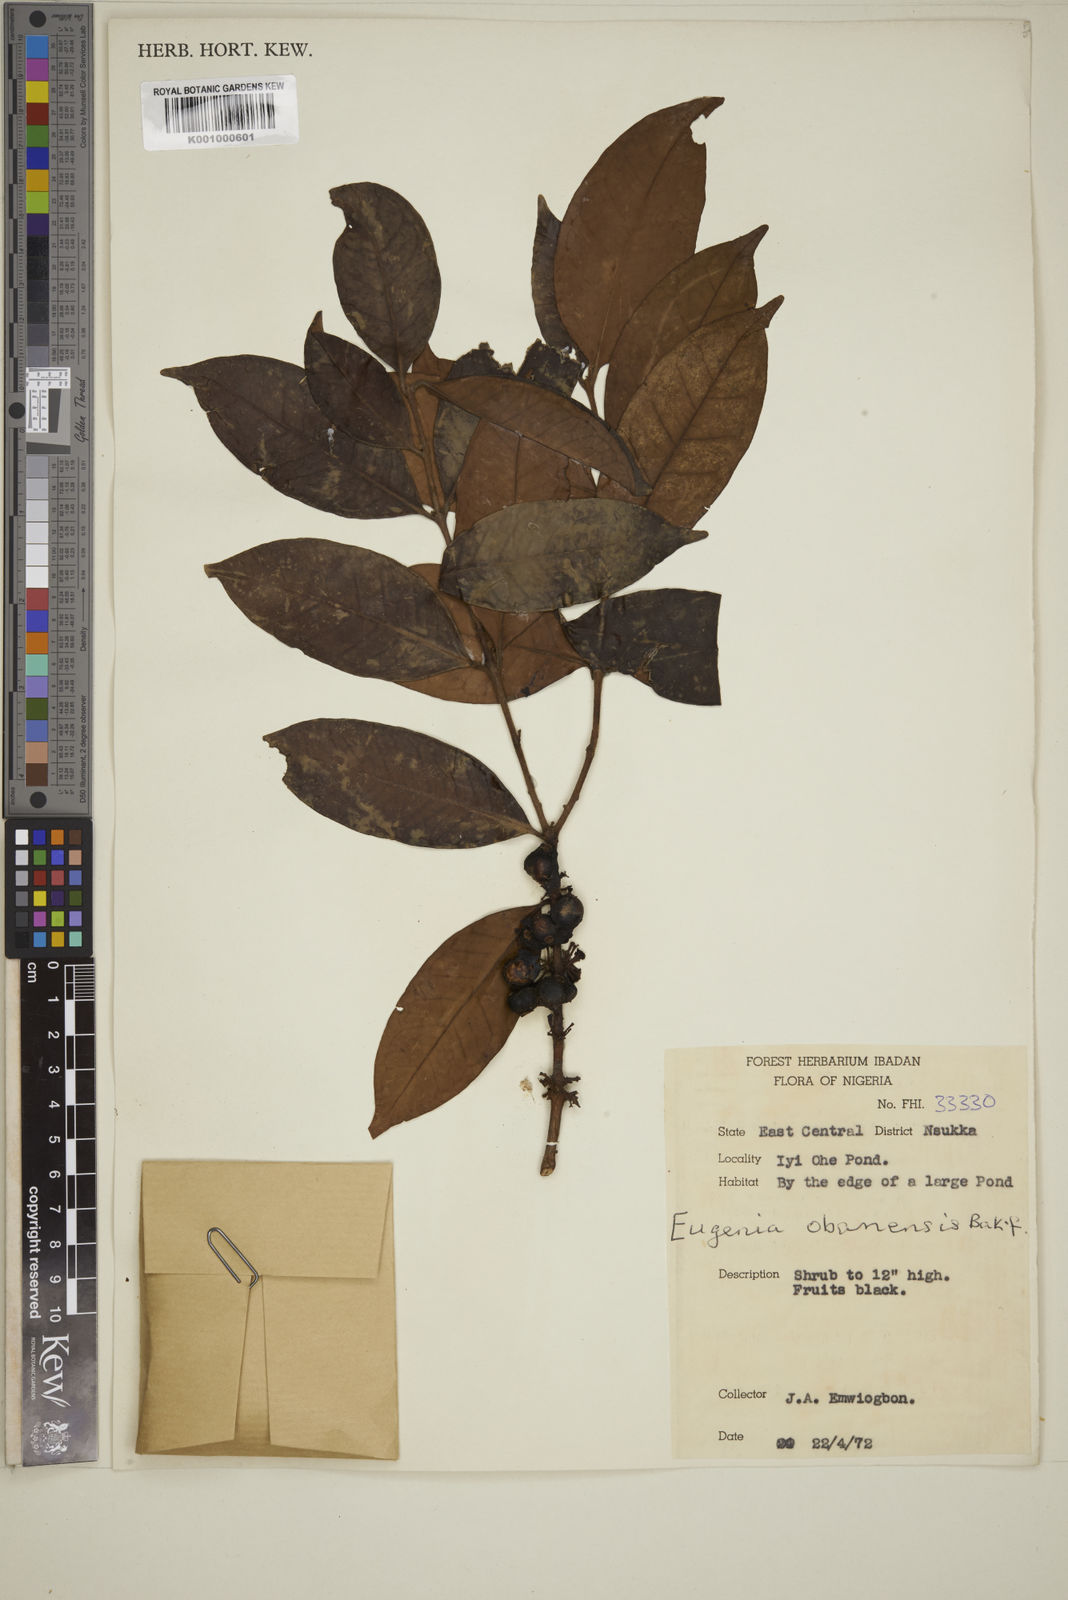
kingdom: Plantae
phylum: Tracheophyta
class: Magnoliopsida
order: Myrtales
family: Myrtaceae
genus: Eugenia
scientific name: Eugenia obanensis
